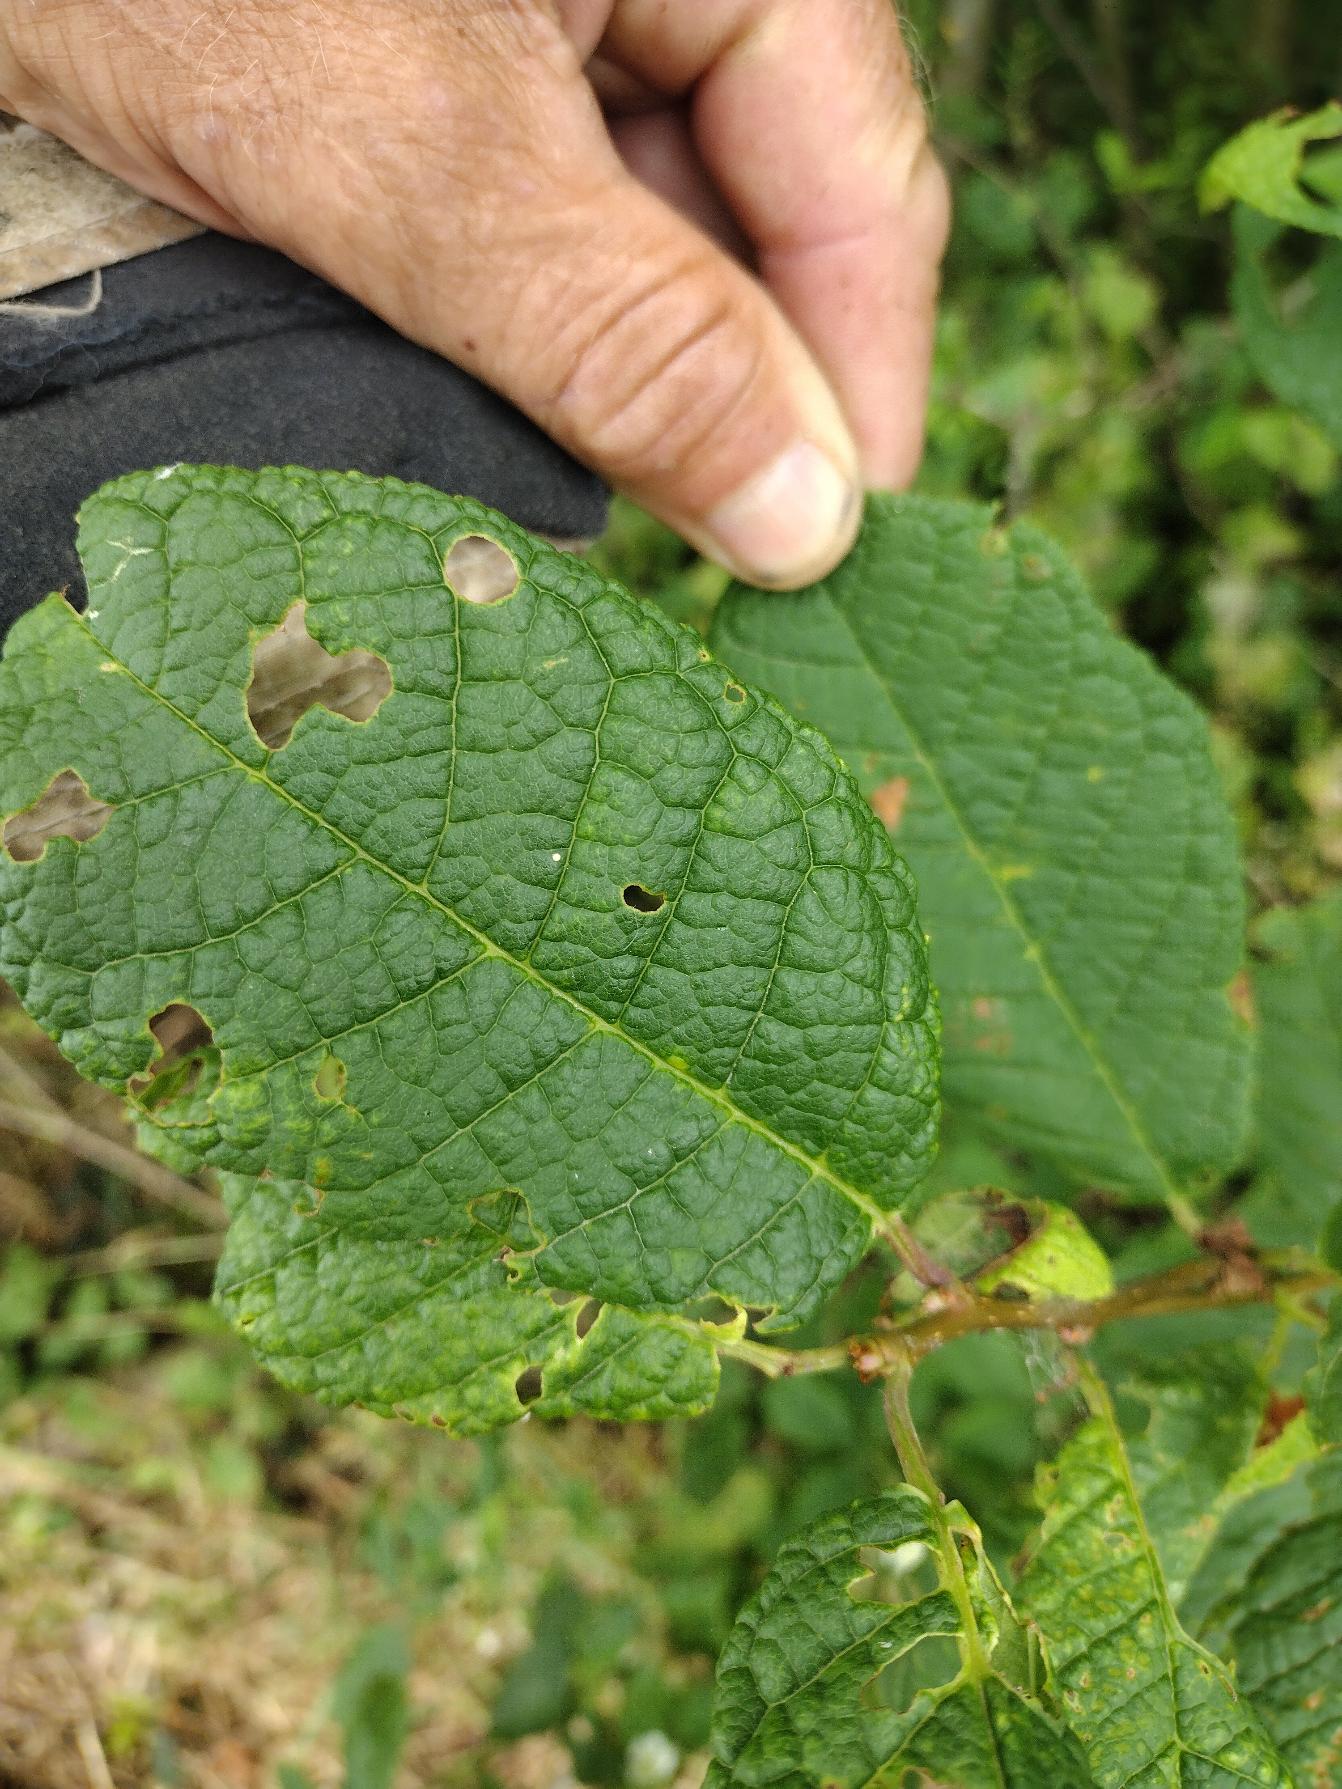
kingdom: Plantae
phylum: Tracheophyta
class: Magnoliopsida
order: Rosales
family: Rosaceae
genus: Prunus
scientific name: Prunus padus
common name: Almindelig hæg
